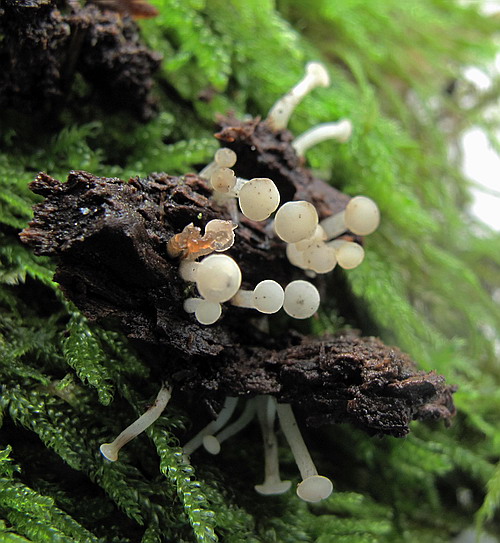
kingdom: Fungi
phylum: Ascomycota
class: Leotiomycetes
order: Helotiales
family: Tricladiaceae
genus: Cudoniella
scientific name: Cudoniella acicularis
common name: ege-dyndskive
